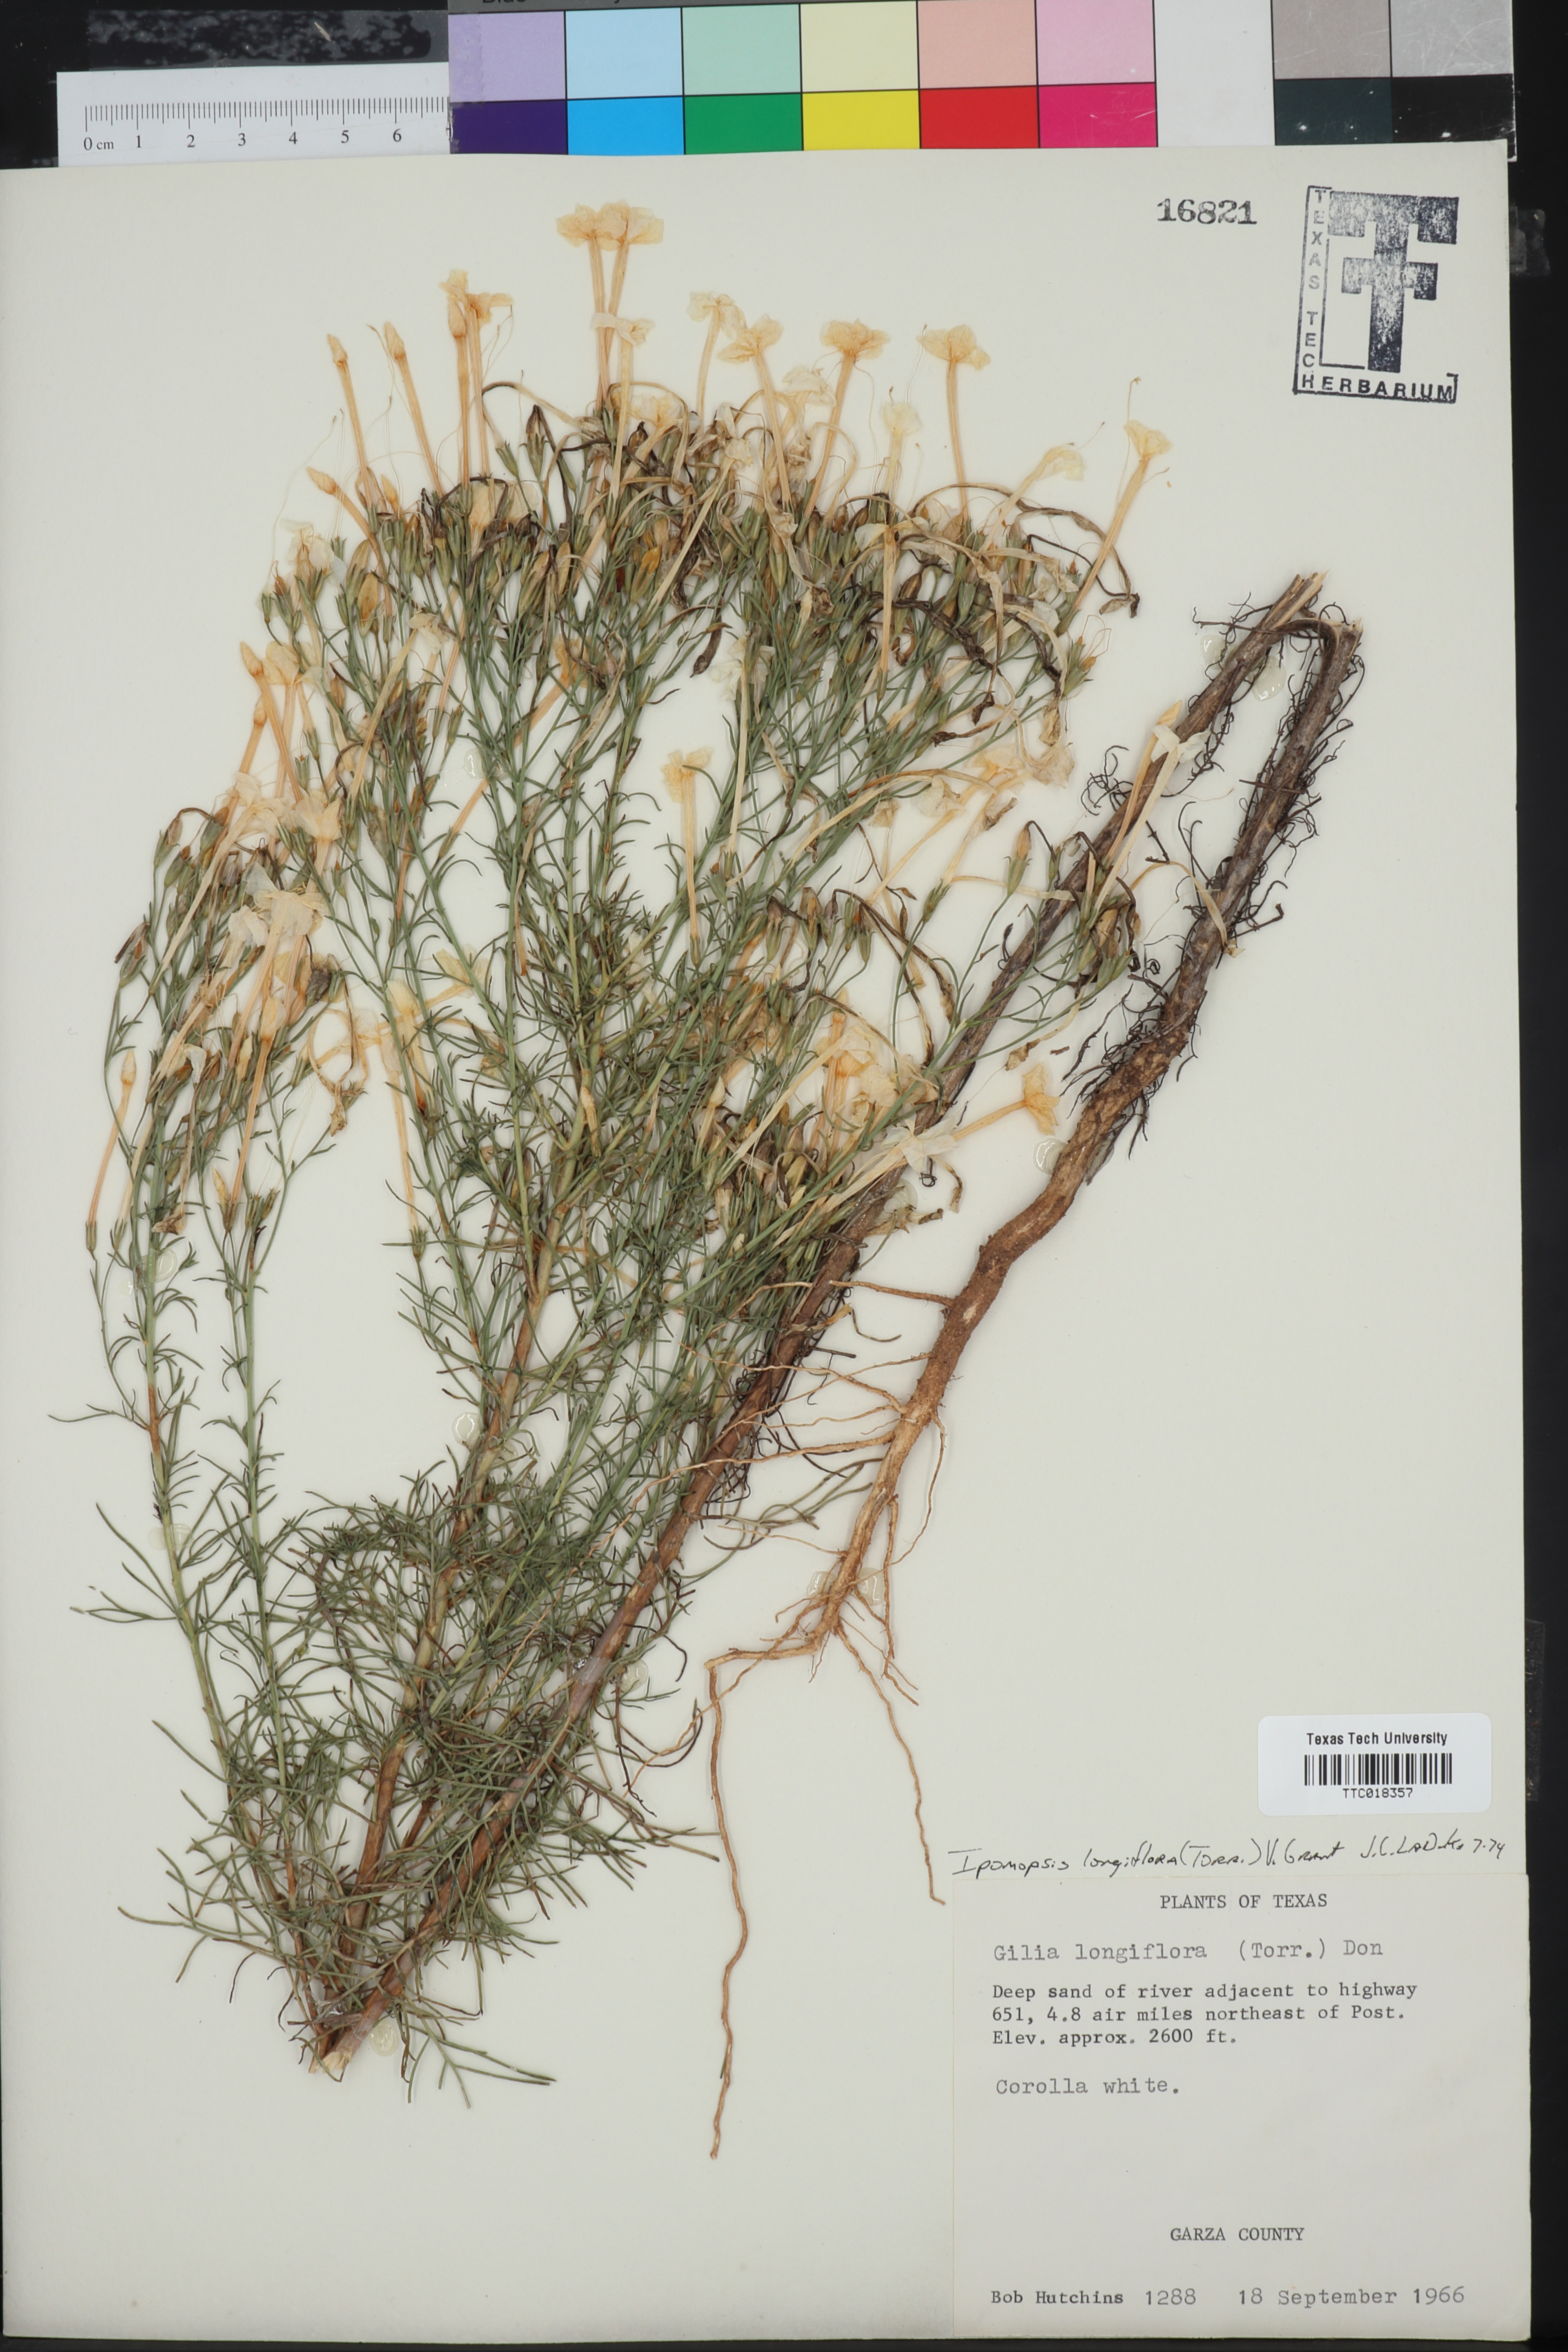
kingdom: Plantae
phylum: Tracheophyta
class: Magnoliopsida
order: Ericales
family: Polemoniaceae
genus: Ipomopsis
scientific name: Ipomopsis longiflora
